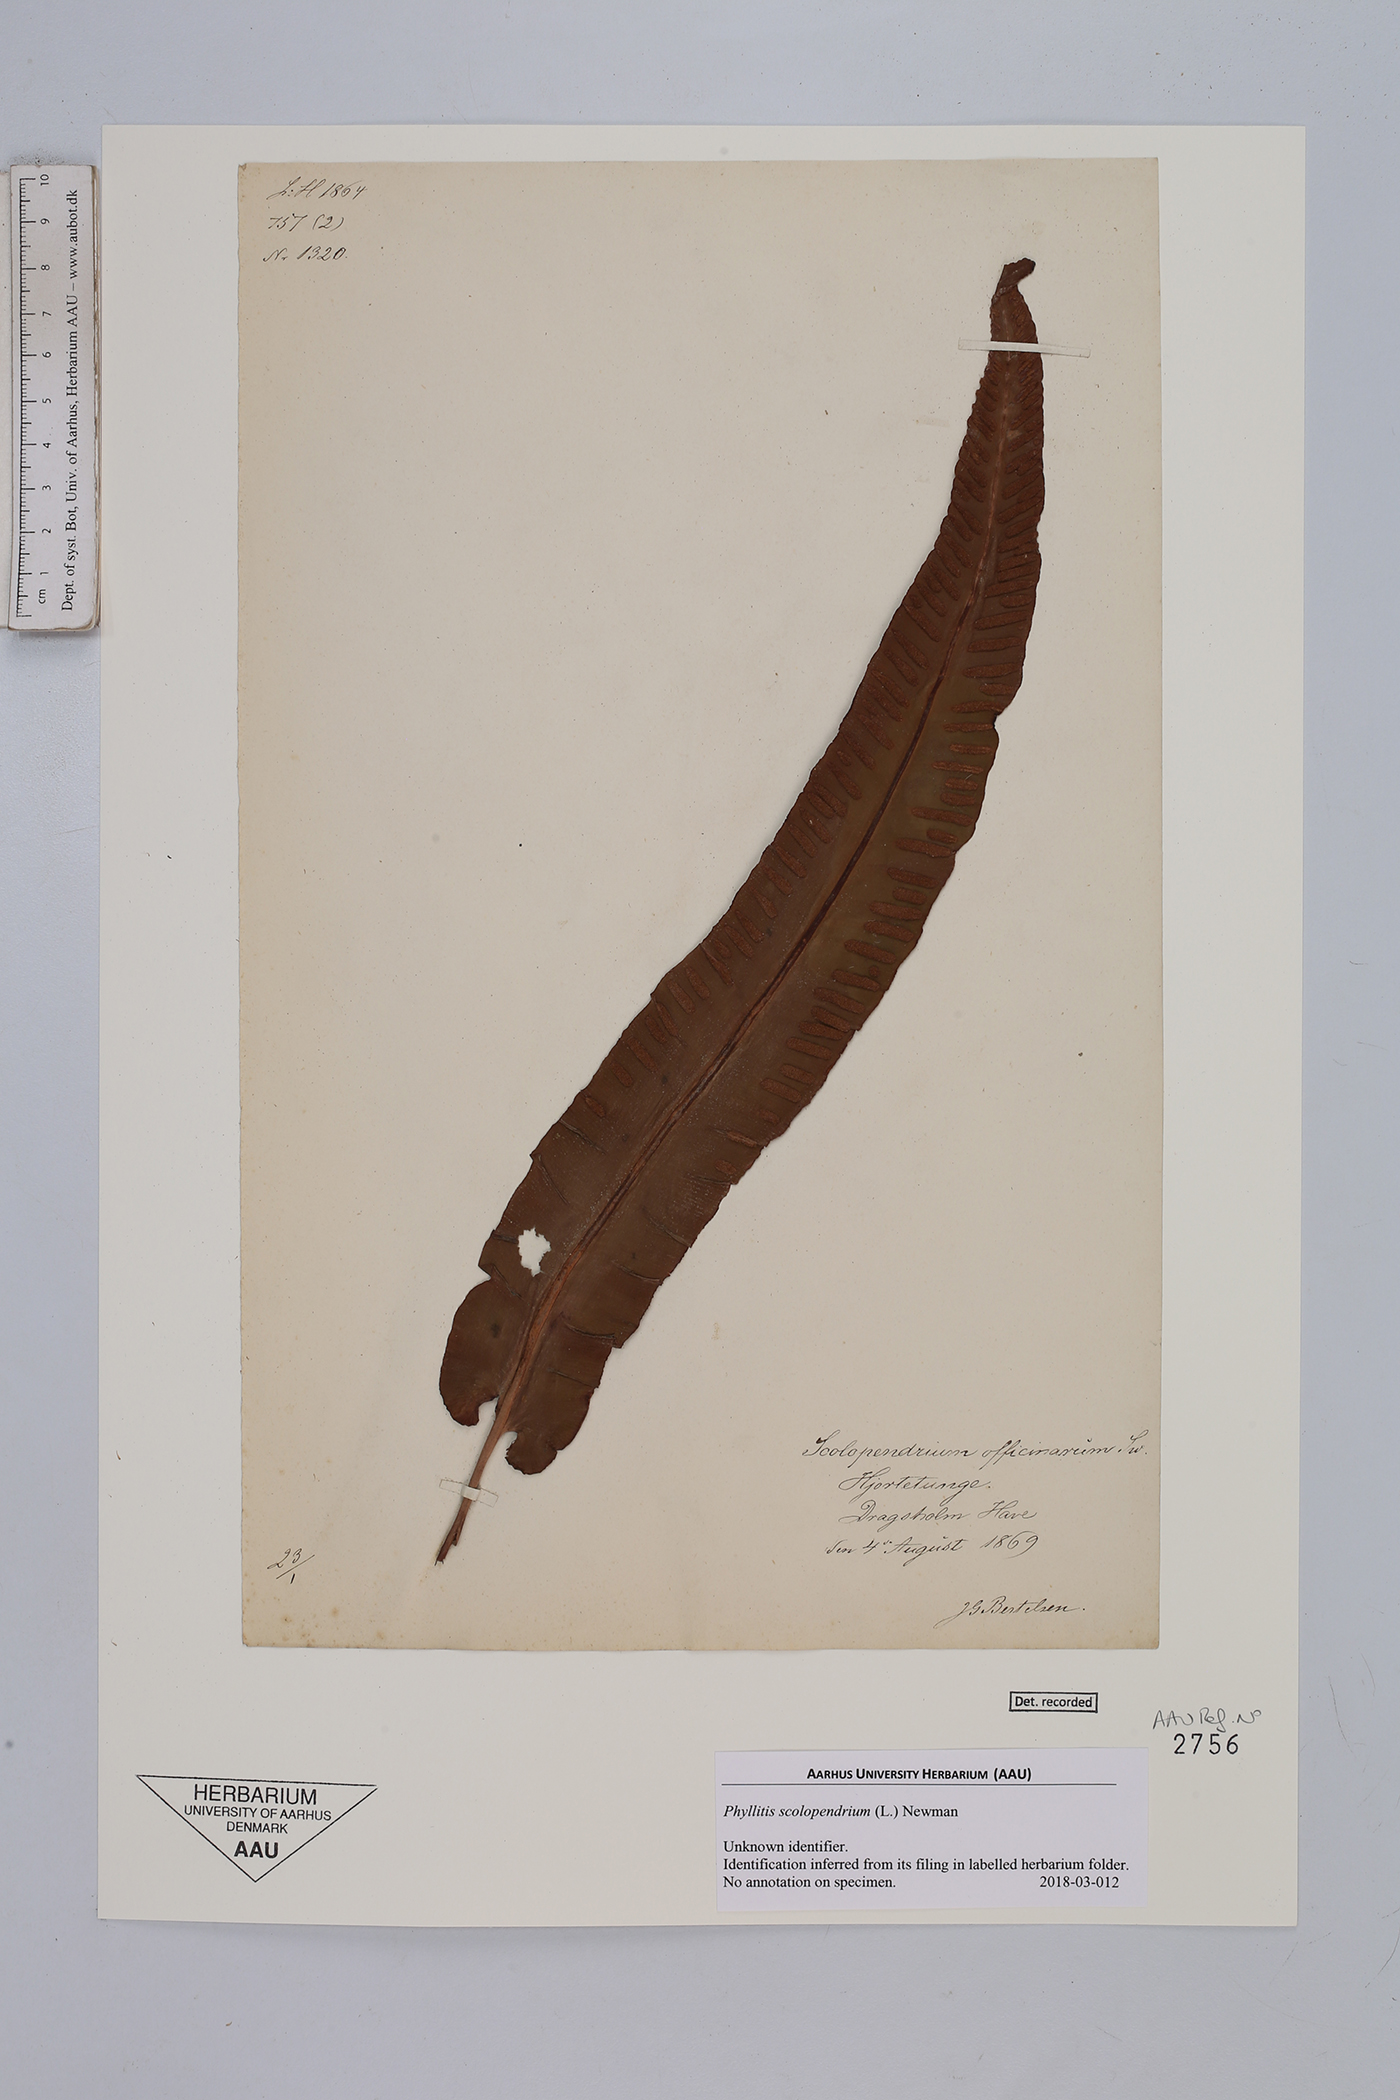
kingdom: Plantae
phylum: Tracheophyta
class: Polypodiopsida
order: Polypodiales
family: Aspleniaceae
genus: Asplenium
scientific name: Asplenium scolopendrium
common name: Hart's-tongue fern
